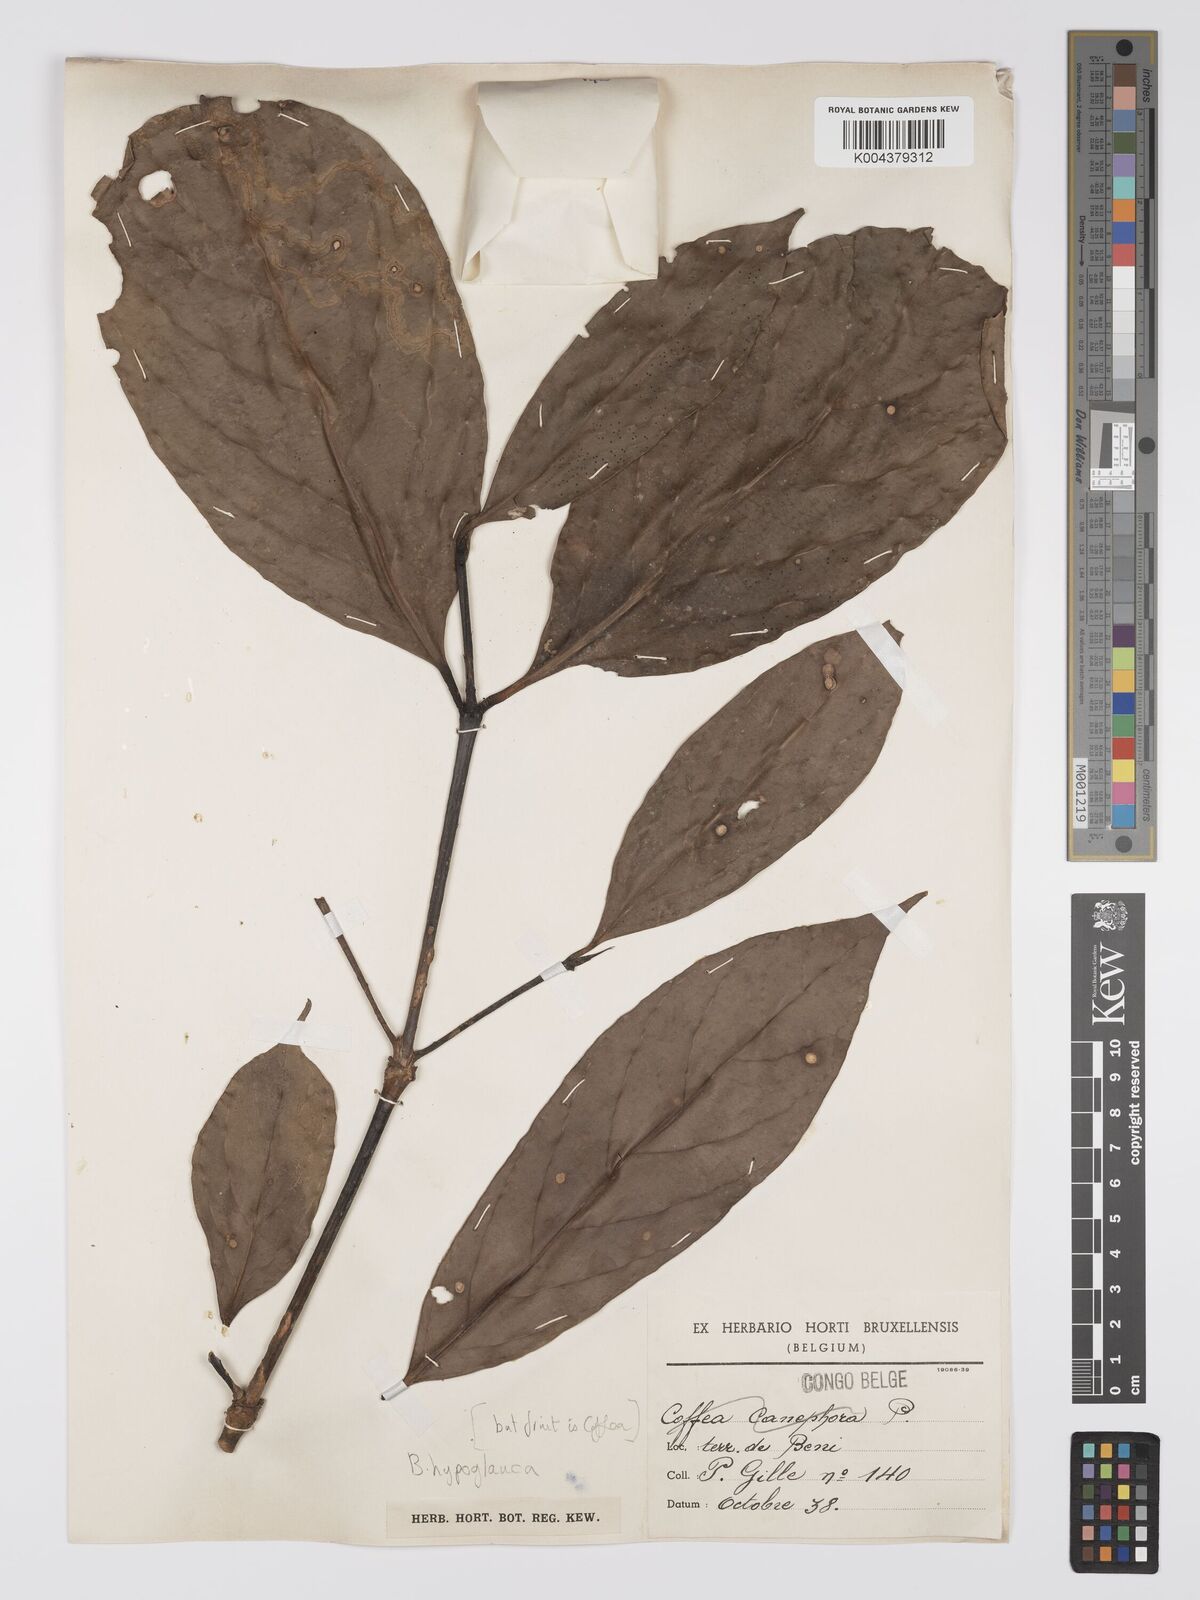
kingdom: Plantae
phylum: Tracheophyta
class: Magnoliopsida
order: Gentianales
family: Rubiaceae
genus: Belonophora
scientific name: Belonophora coffeoides
